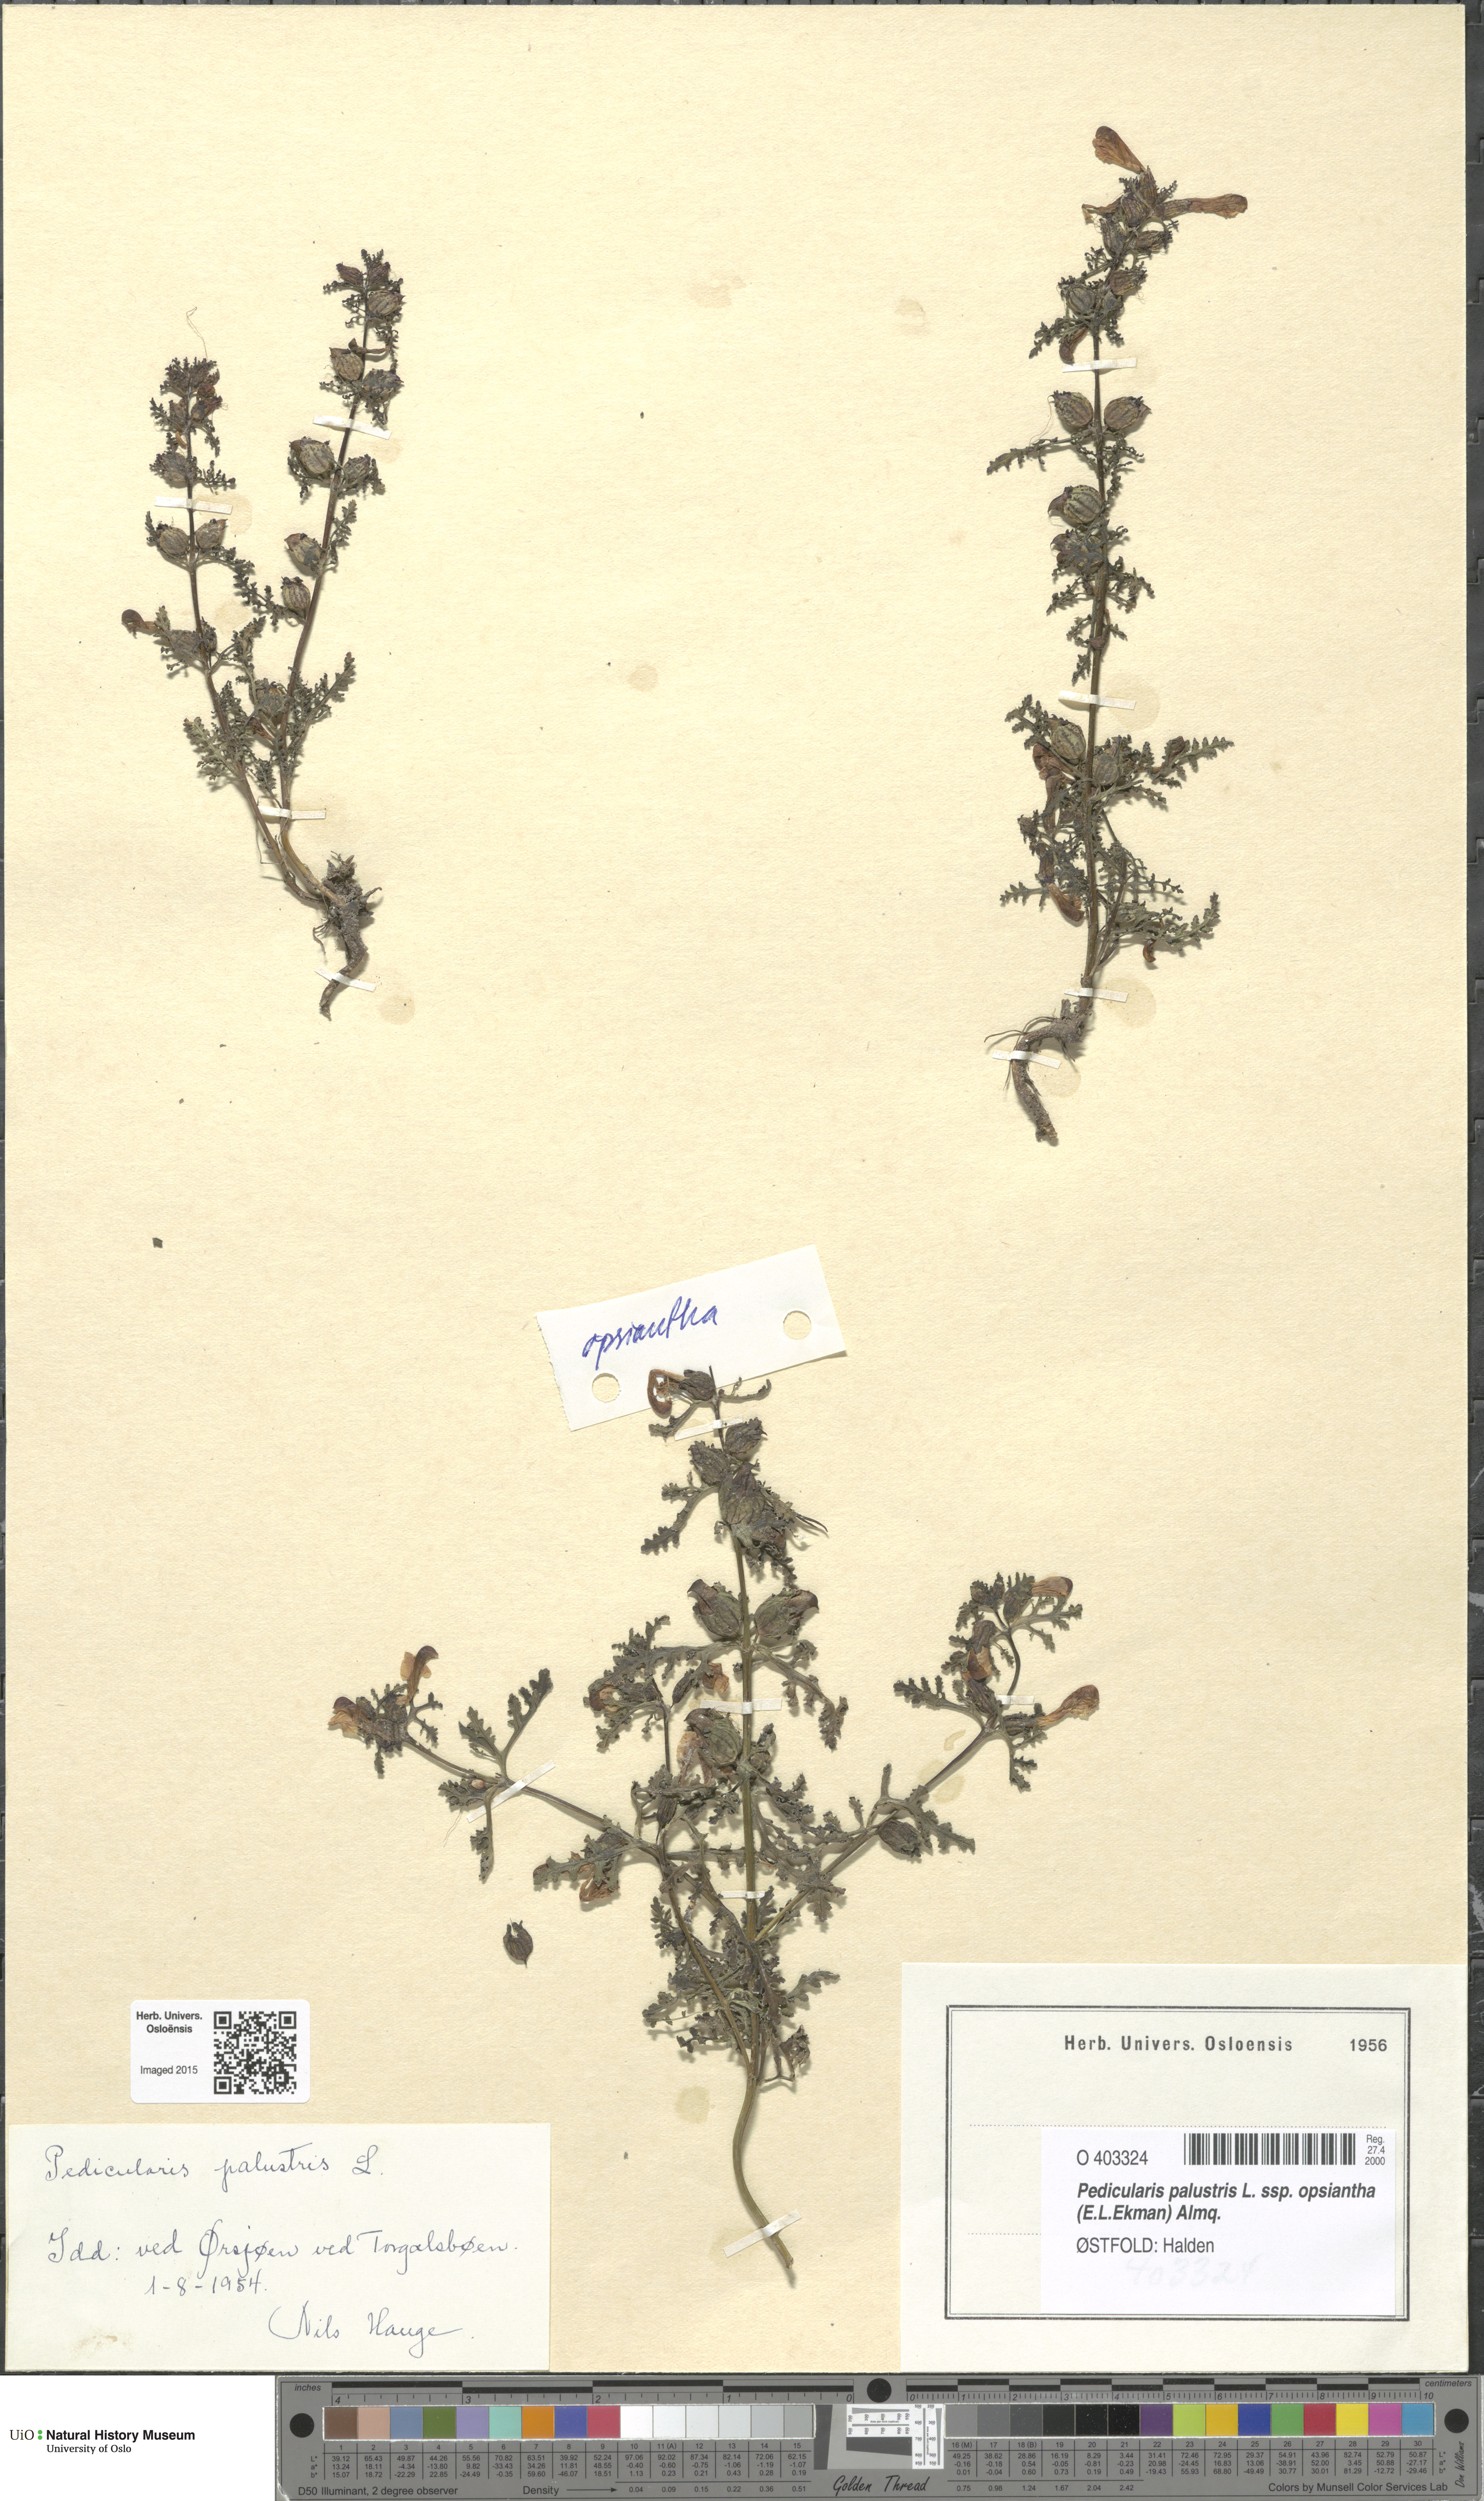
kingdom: Plantae
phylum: Tracheophyta
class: Magnoliopsida
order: Lamiales
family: Orobanchaceae
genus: Pedicularis
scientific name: Pedicularis karoi
